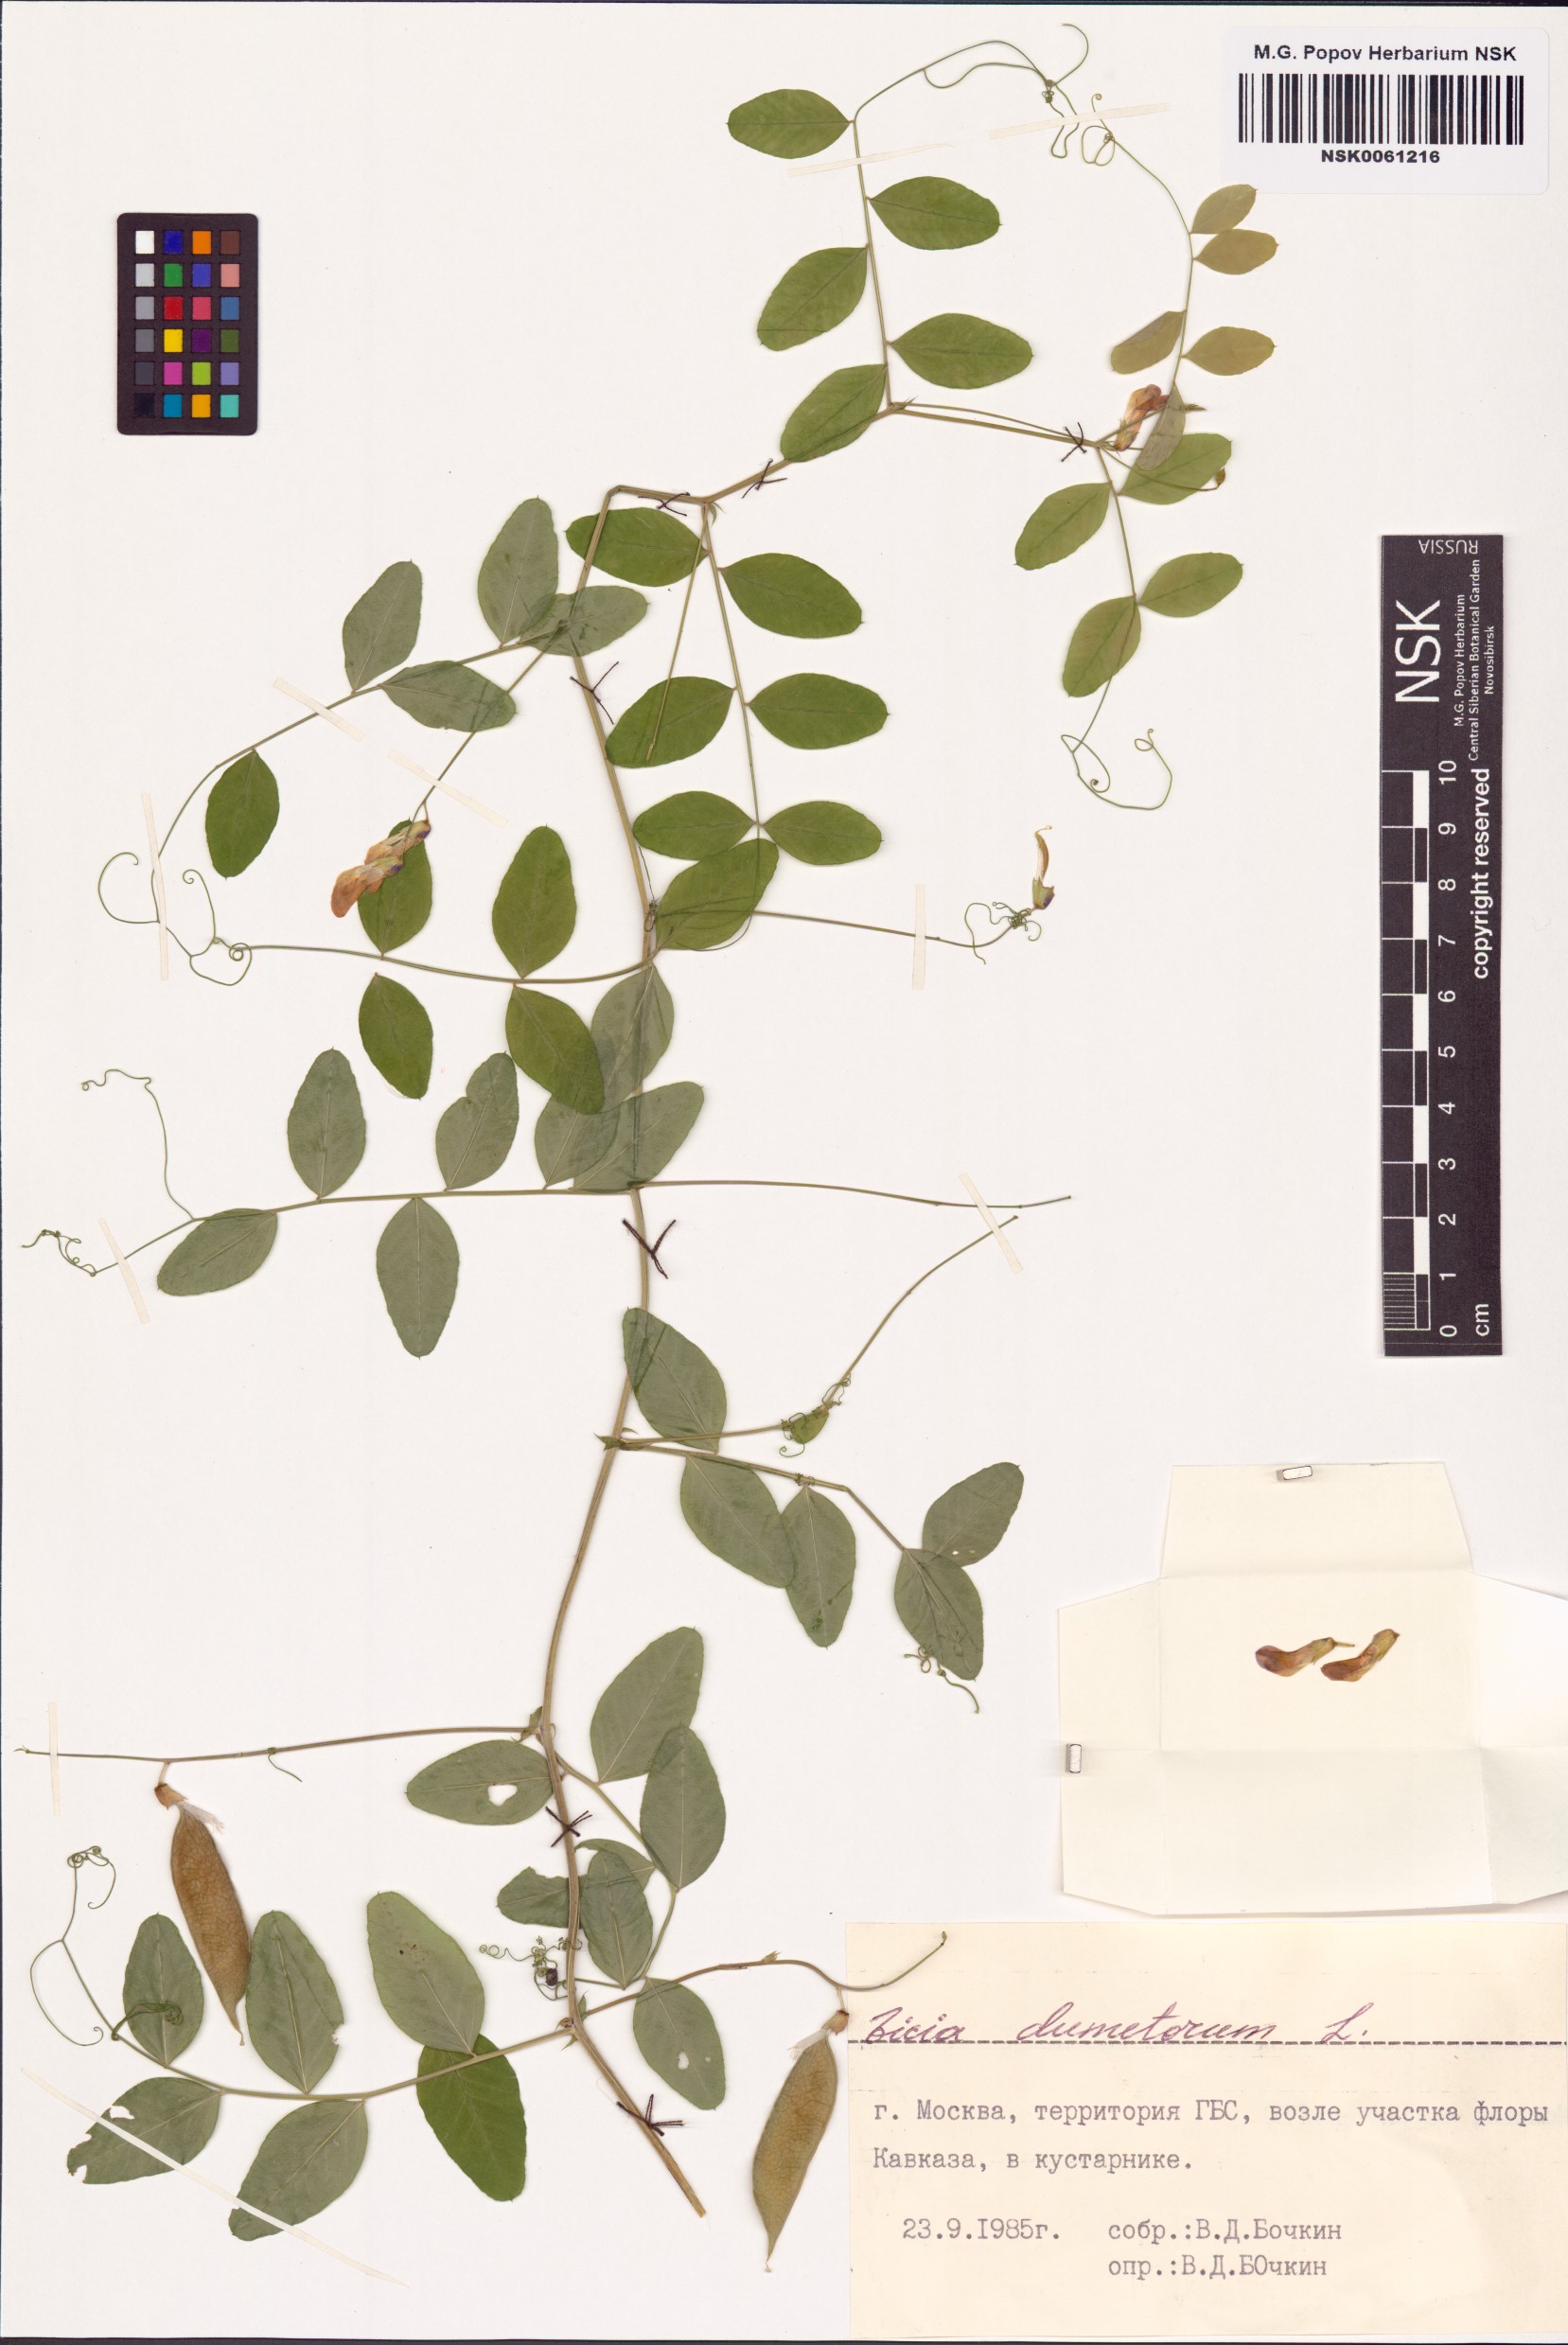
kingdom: Plantae
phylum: Tracheophyta
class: Magnoliopsida
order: Fabales
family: Fabaceae
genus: Vicia
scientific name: Vicia dumetorum
